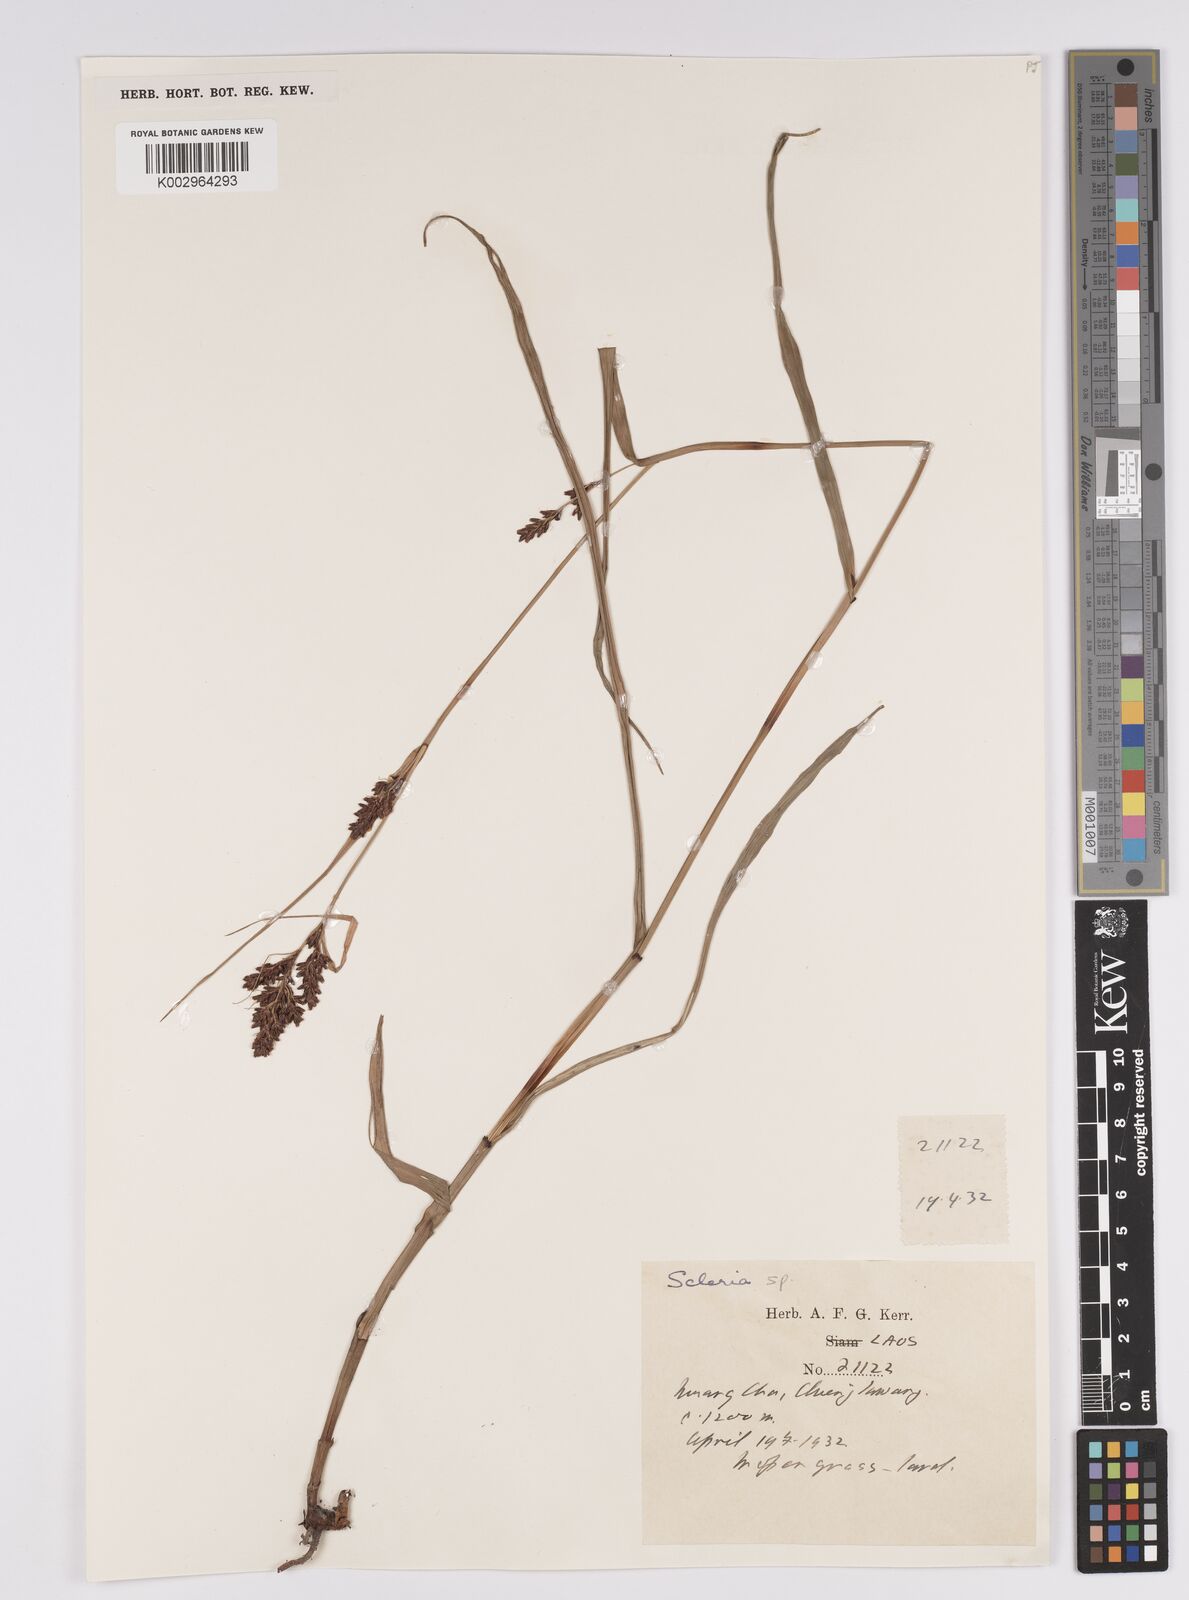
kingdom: Plantae
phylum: Tracheophyta
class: Liliopsida
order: Poales
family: Cyperaceae
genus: Scleria
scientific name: Scleria
